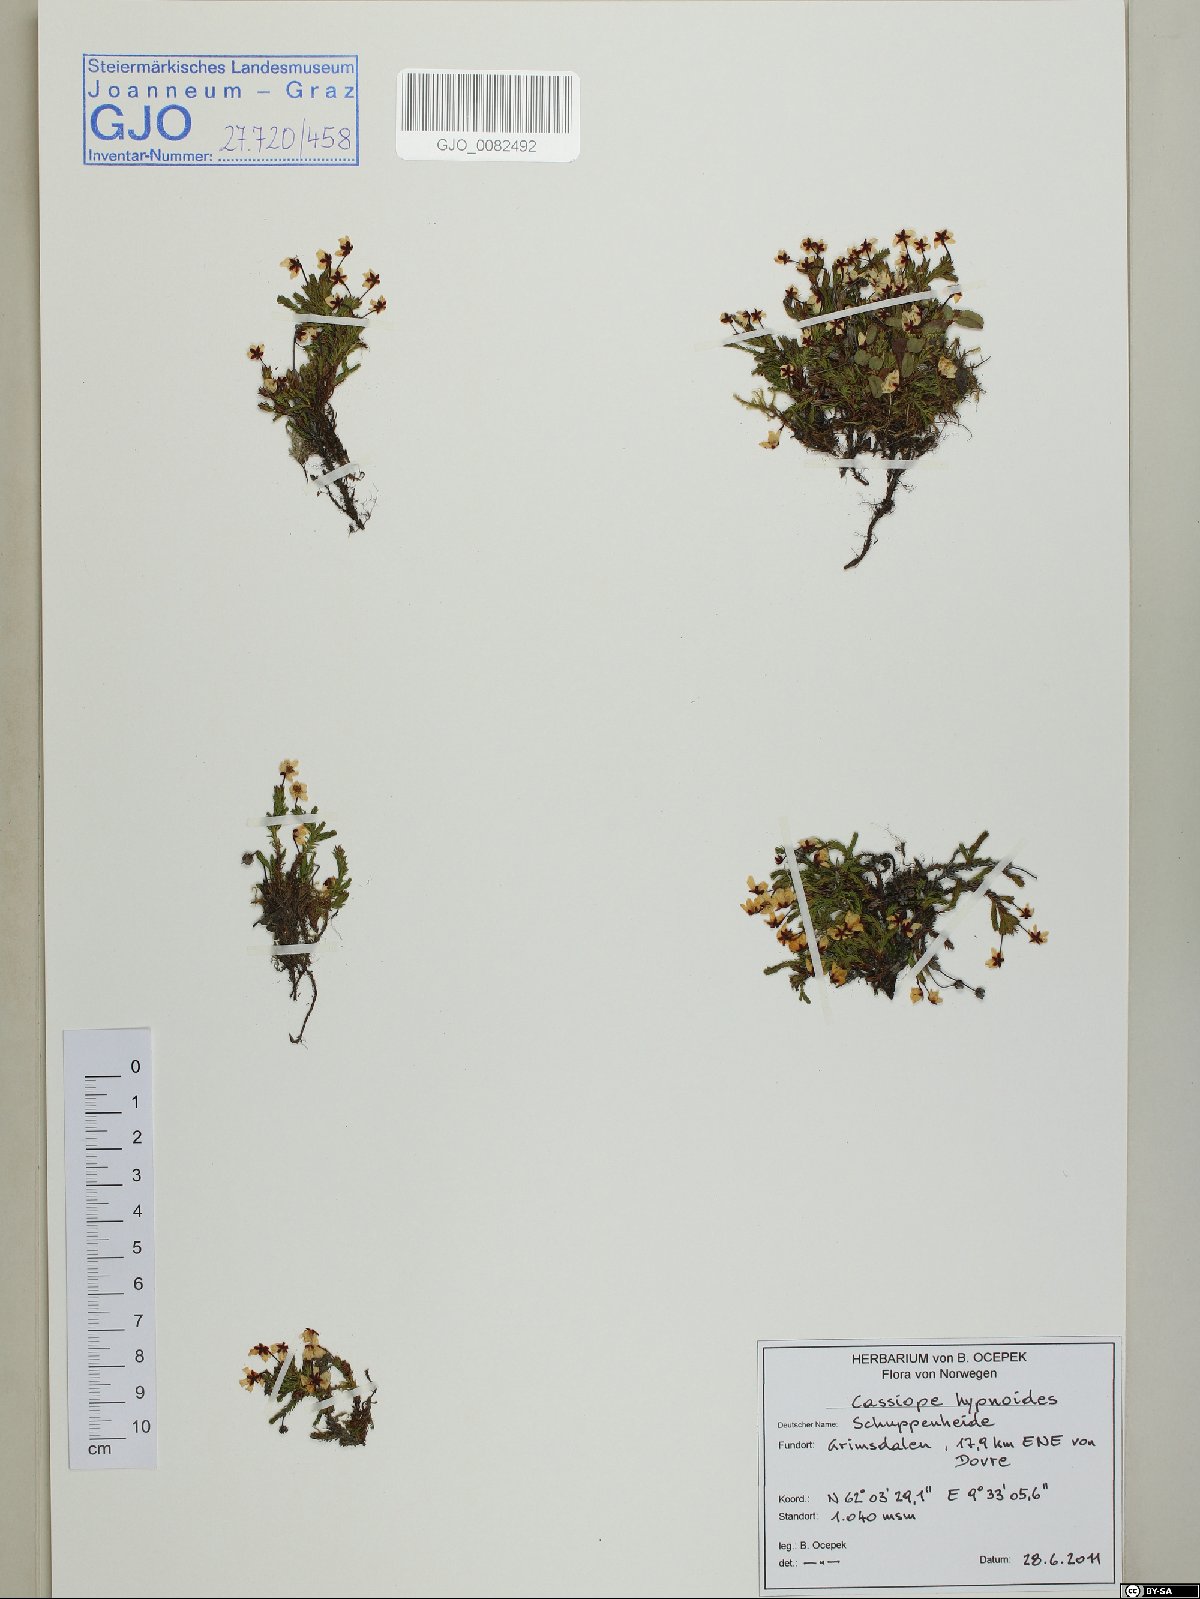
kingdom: Plantae
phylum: Tracheophyta
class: Magnoliopsida
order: Ericales
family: Ericaceae
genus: Harrimanella
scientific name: Harrimanella hypnoides
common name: Moss bell heather
